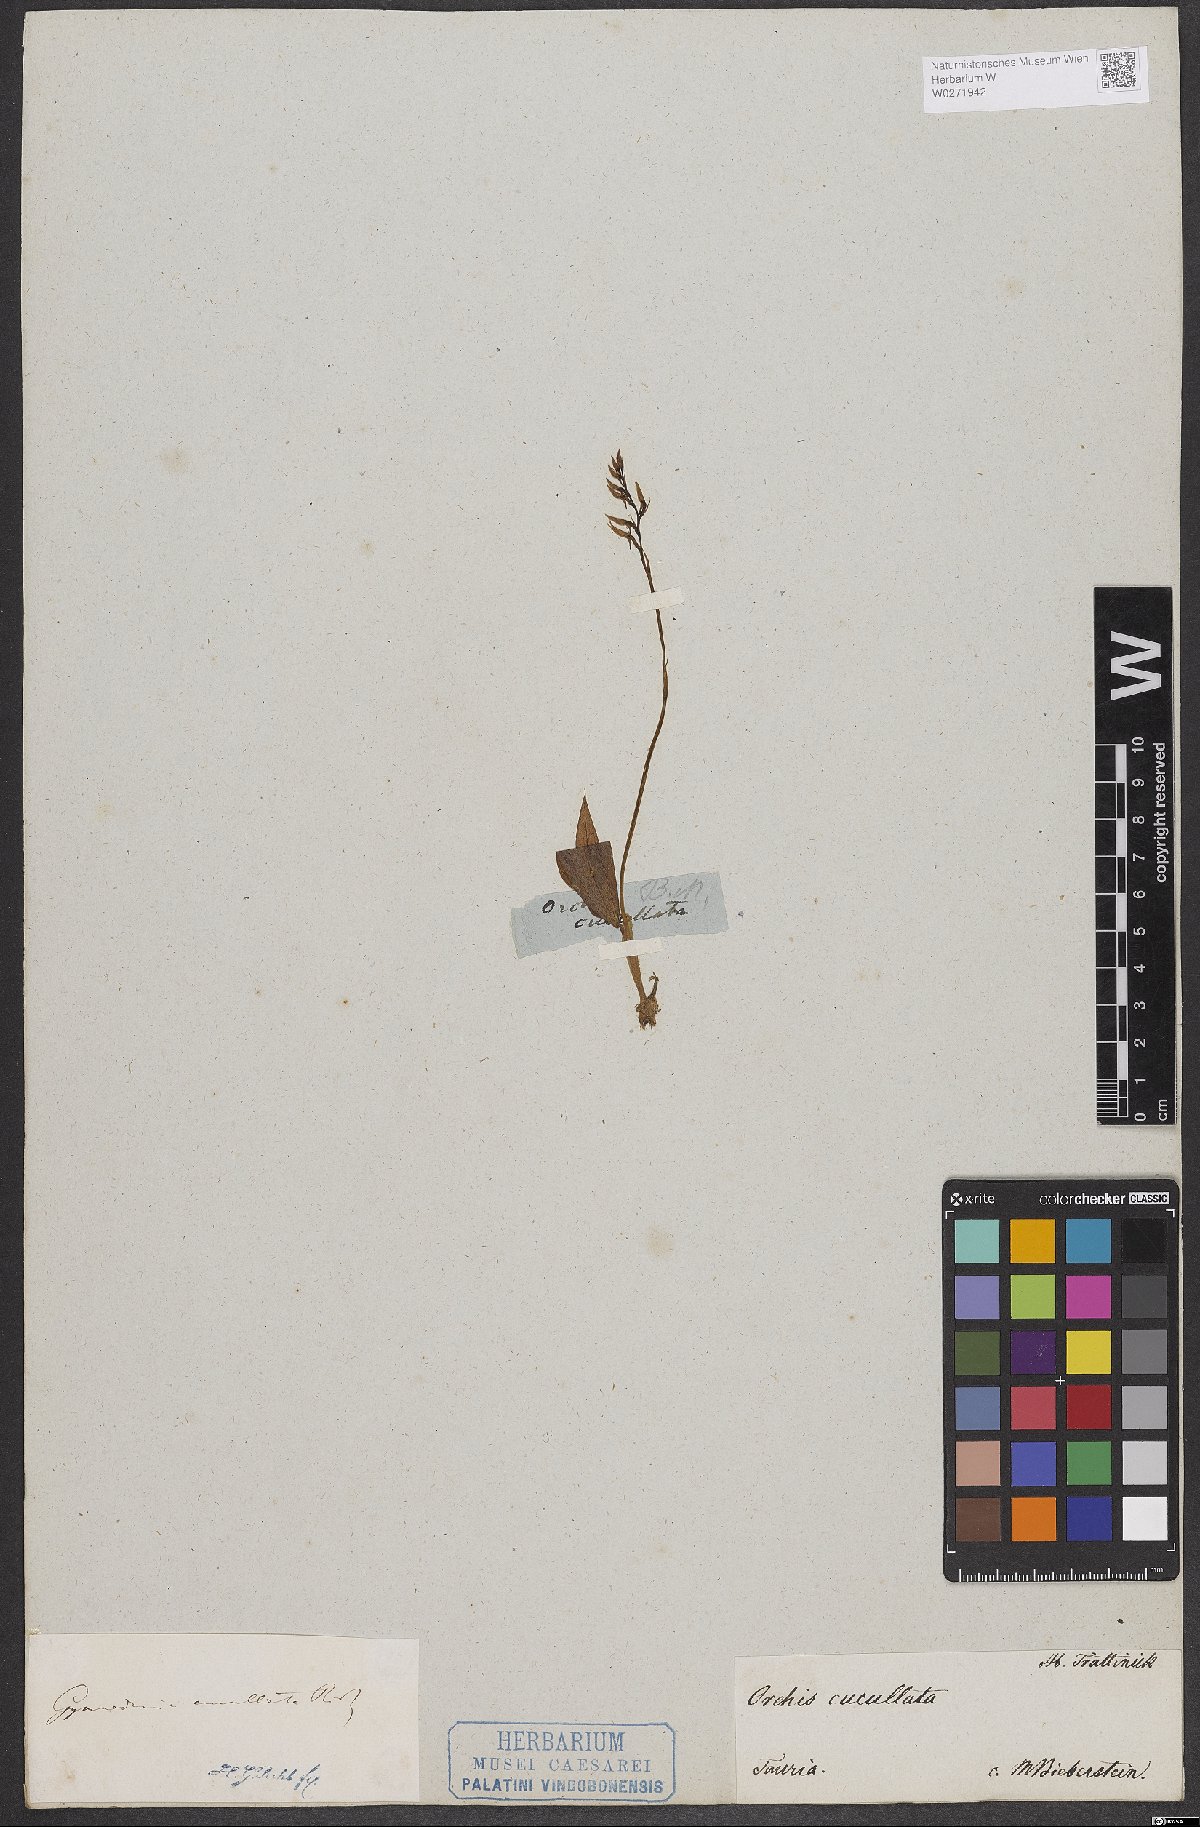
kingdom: Plantae
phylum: Tracheophyta
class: Liliopsida
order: Asparagales
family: Orchidaceae
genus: Hemipilia
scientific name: Hemipilia cucullata
